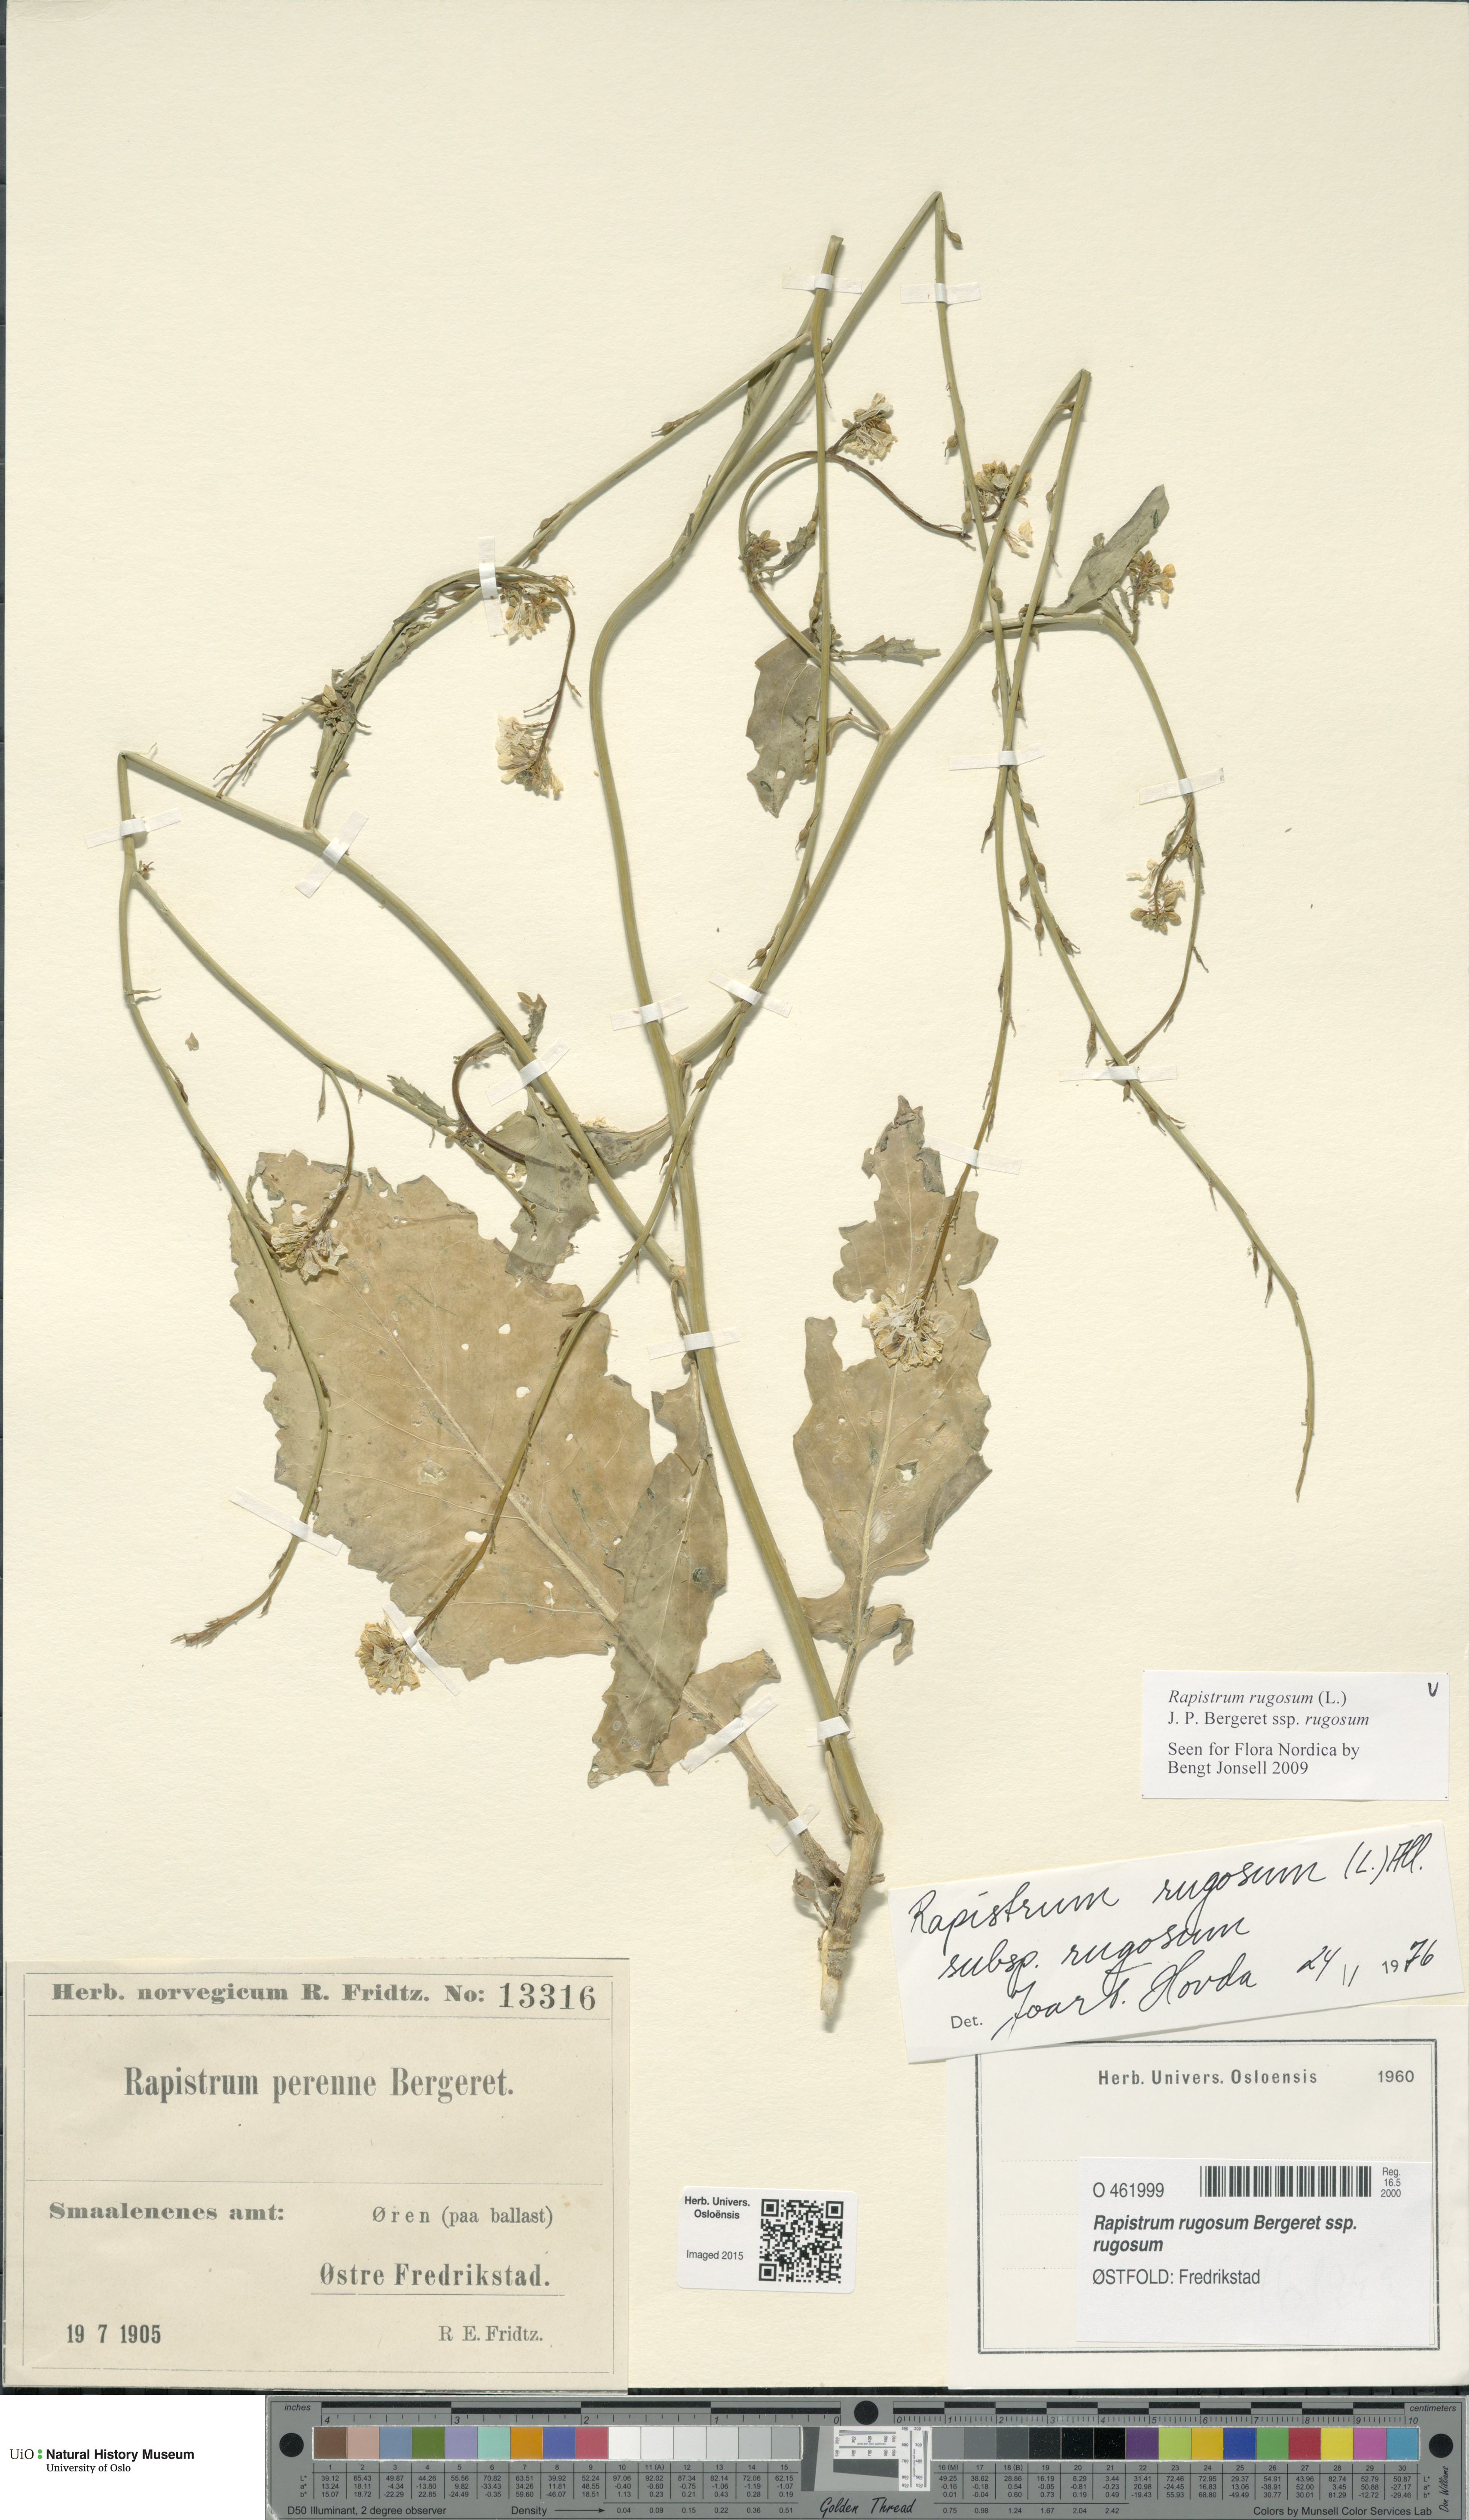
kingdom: Plantae
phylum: Tracheophyta
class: Magnoliopsida
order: Brassicales
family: Brassicaceae
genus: Rapistrum
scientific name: Rapistrum rugosum
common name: Annual bastardcabbage
